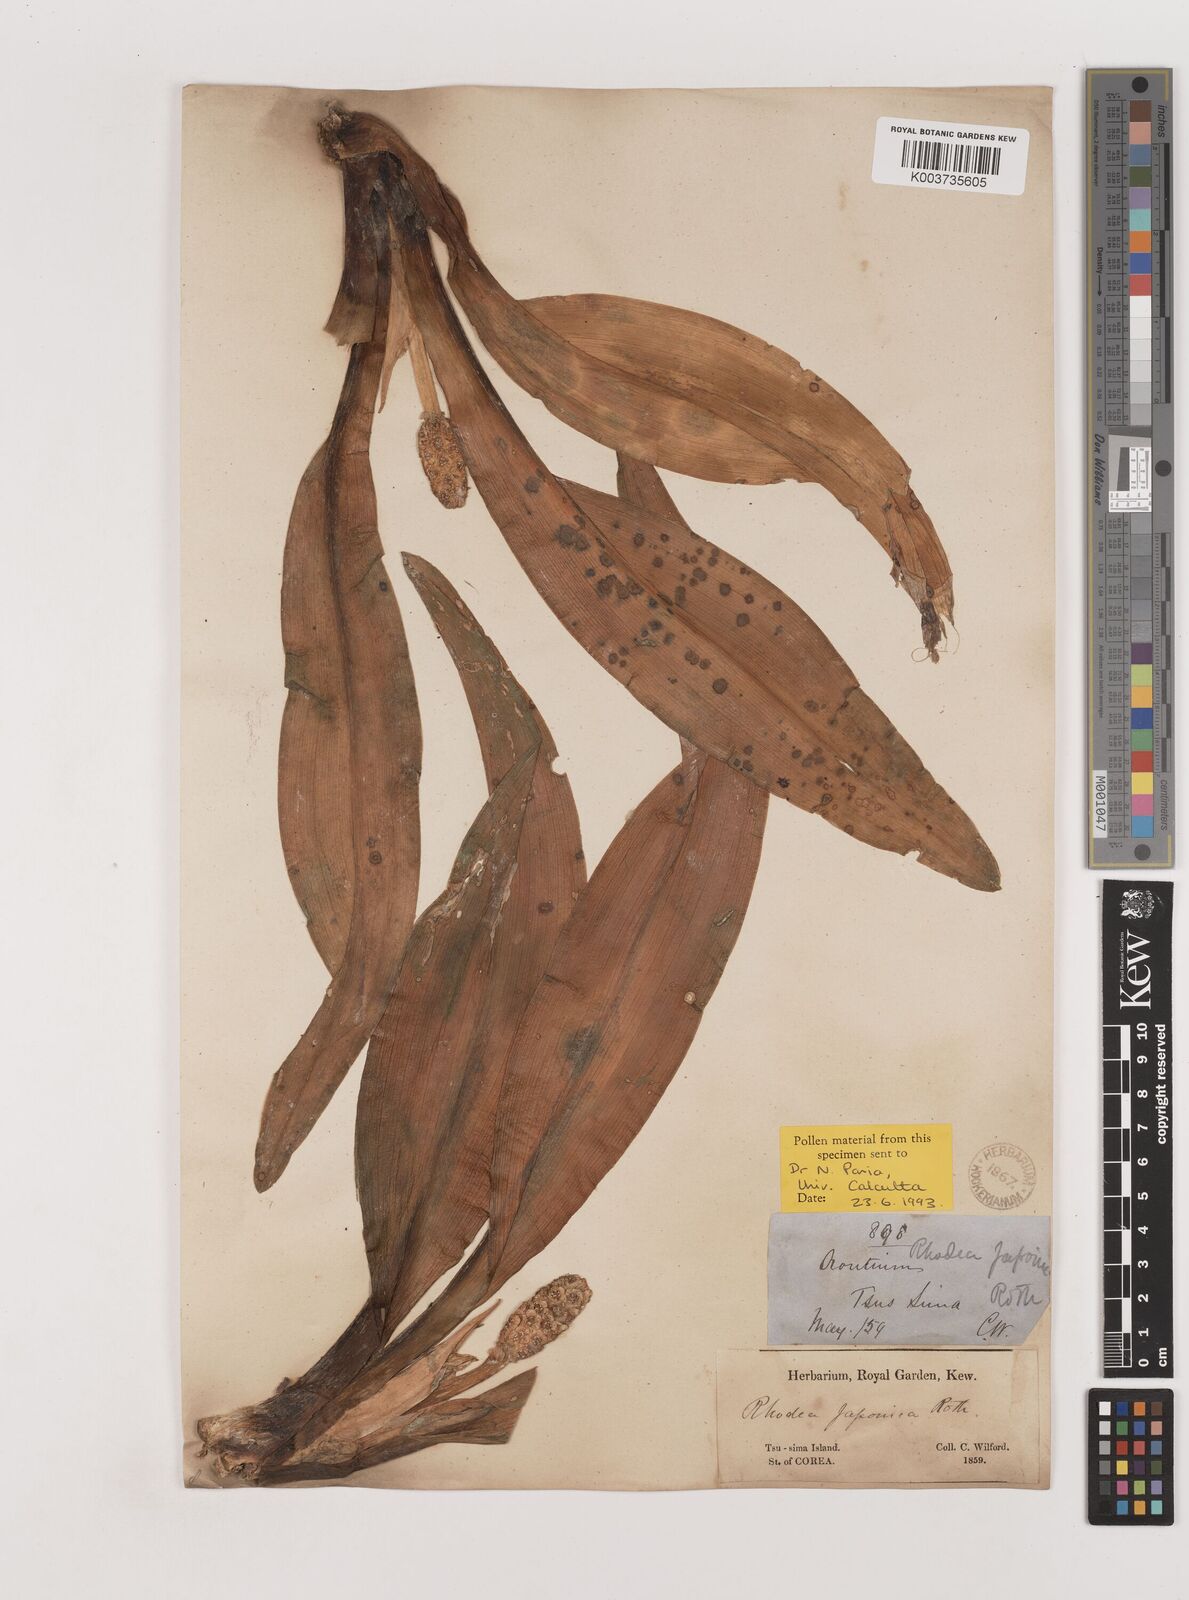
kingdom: Plantae
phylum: Tracheophyta
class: Liliopsida
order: Asparagales
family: Asparagaceae
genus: Rohdea
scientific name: Rohdea japonica
